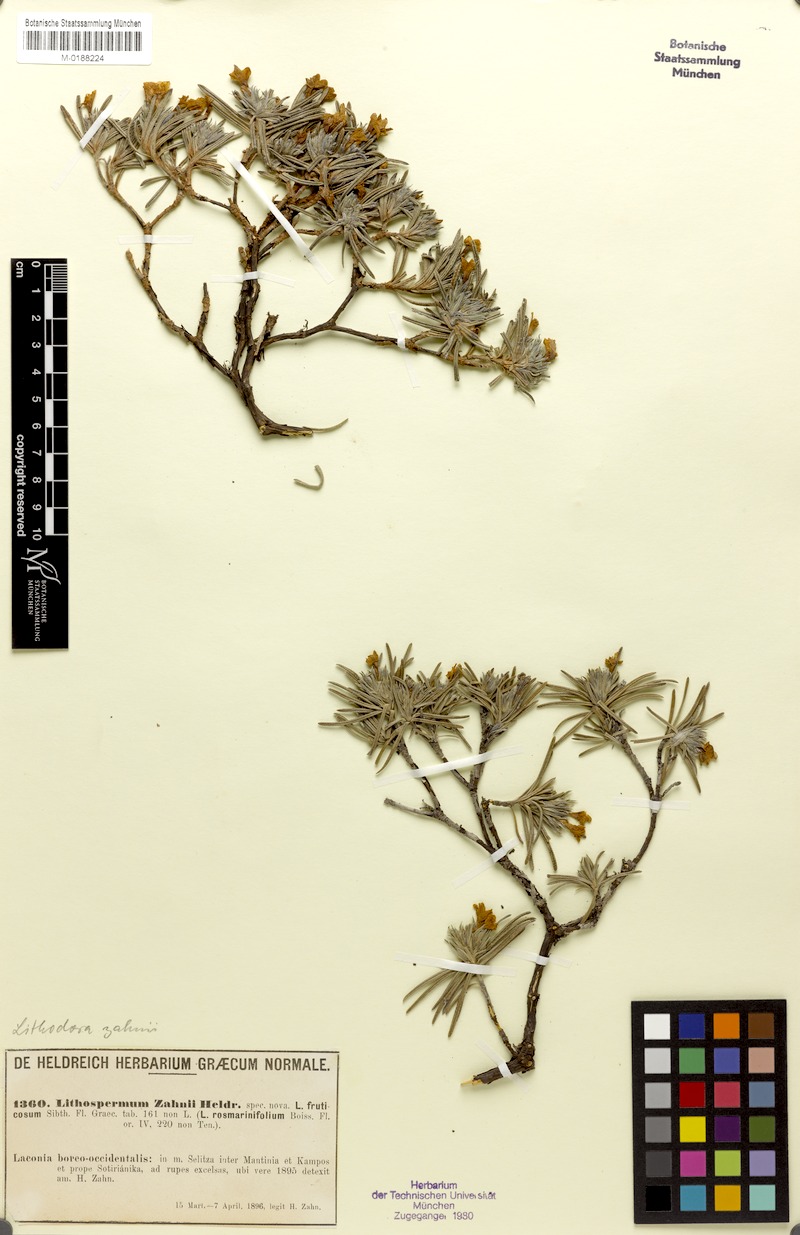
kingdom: Plantae
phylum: Tracheophyta
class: Magnoliopsida
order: Boraginales
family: Boraginaceae
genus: Lithodora
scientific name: Lithodora zahnii
